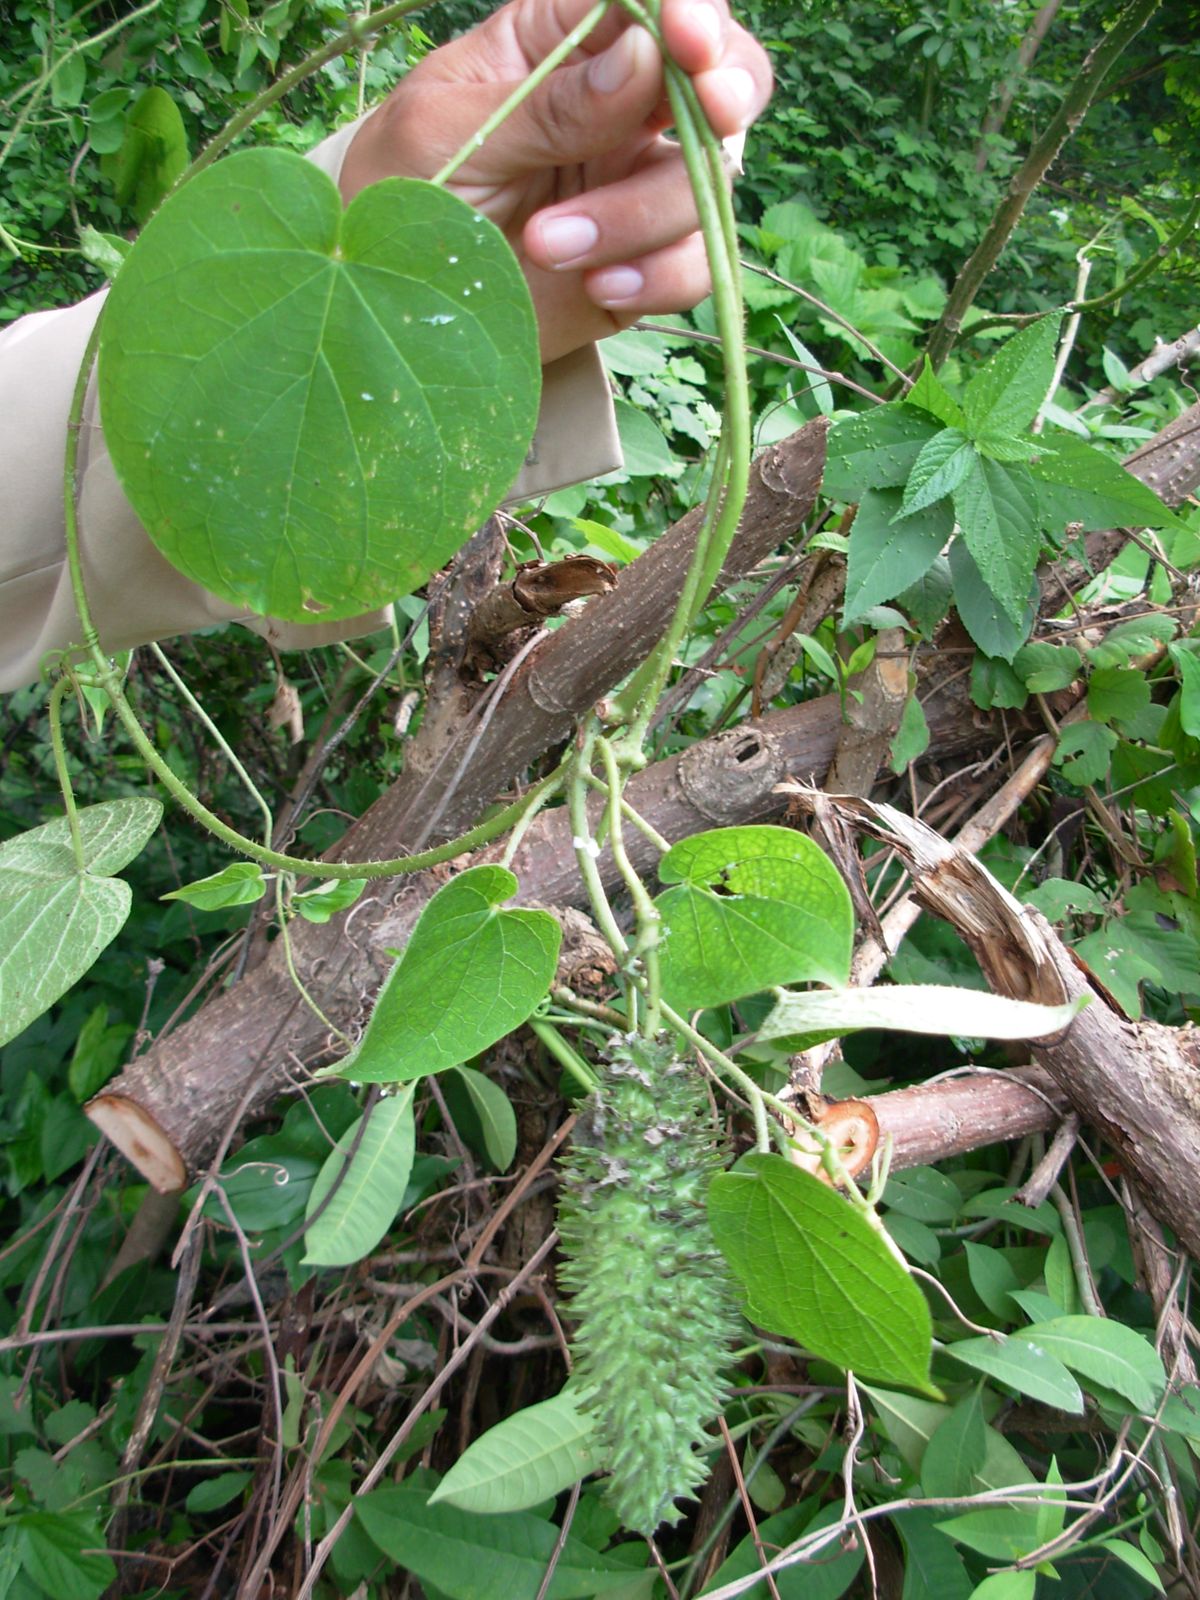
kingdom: Plantae
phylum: Tracheophyta
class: Magnoliopsida
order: Gentianales
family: Apocynaceae
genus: Matelea
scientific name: Matelea prosthecidiscus
